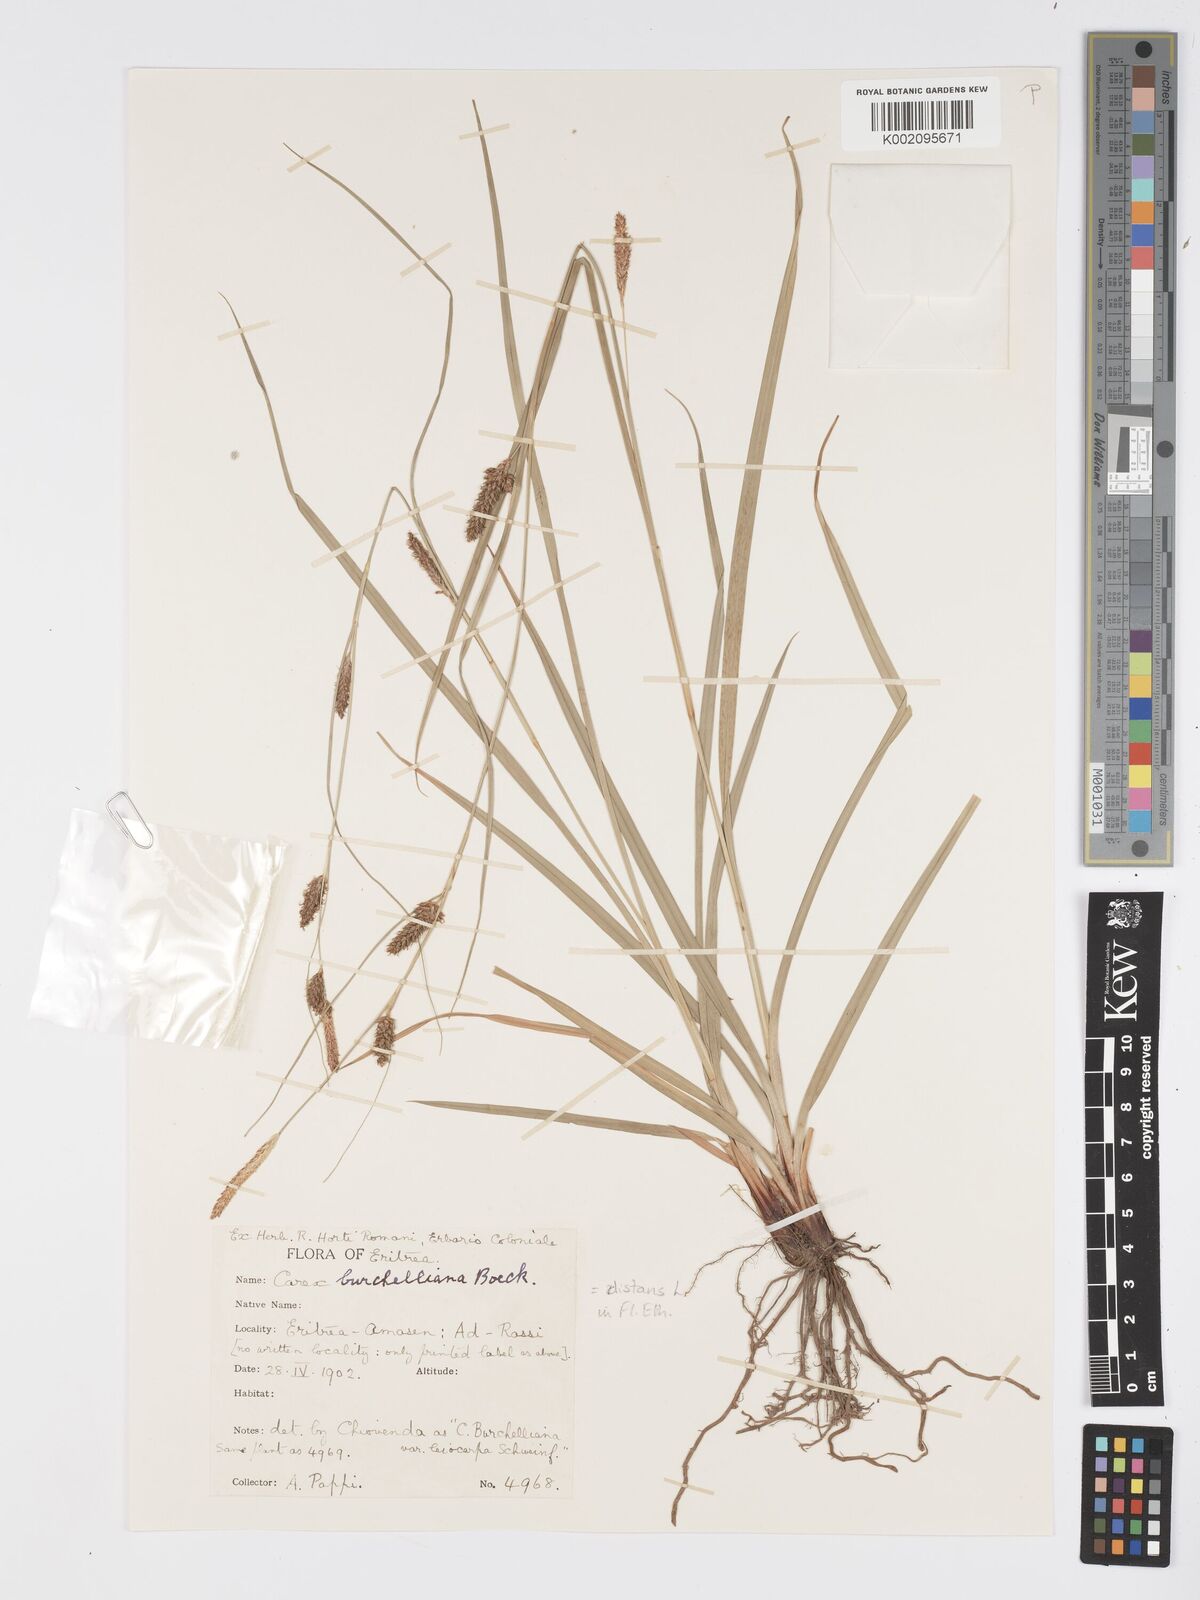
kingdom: Plantae
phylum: Tracheophyta
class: Liliopsida
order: Poales
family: Cyperaceae
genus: Carex
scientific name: Carex burchelliana
